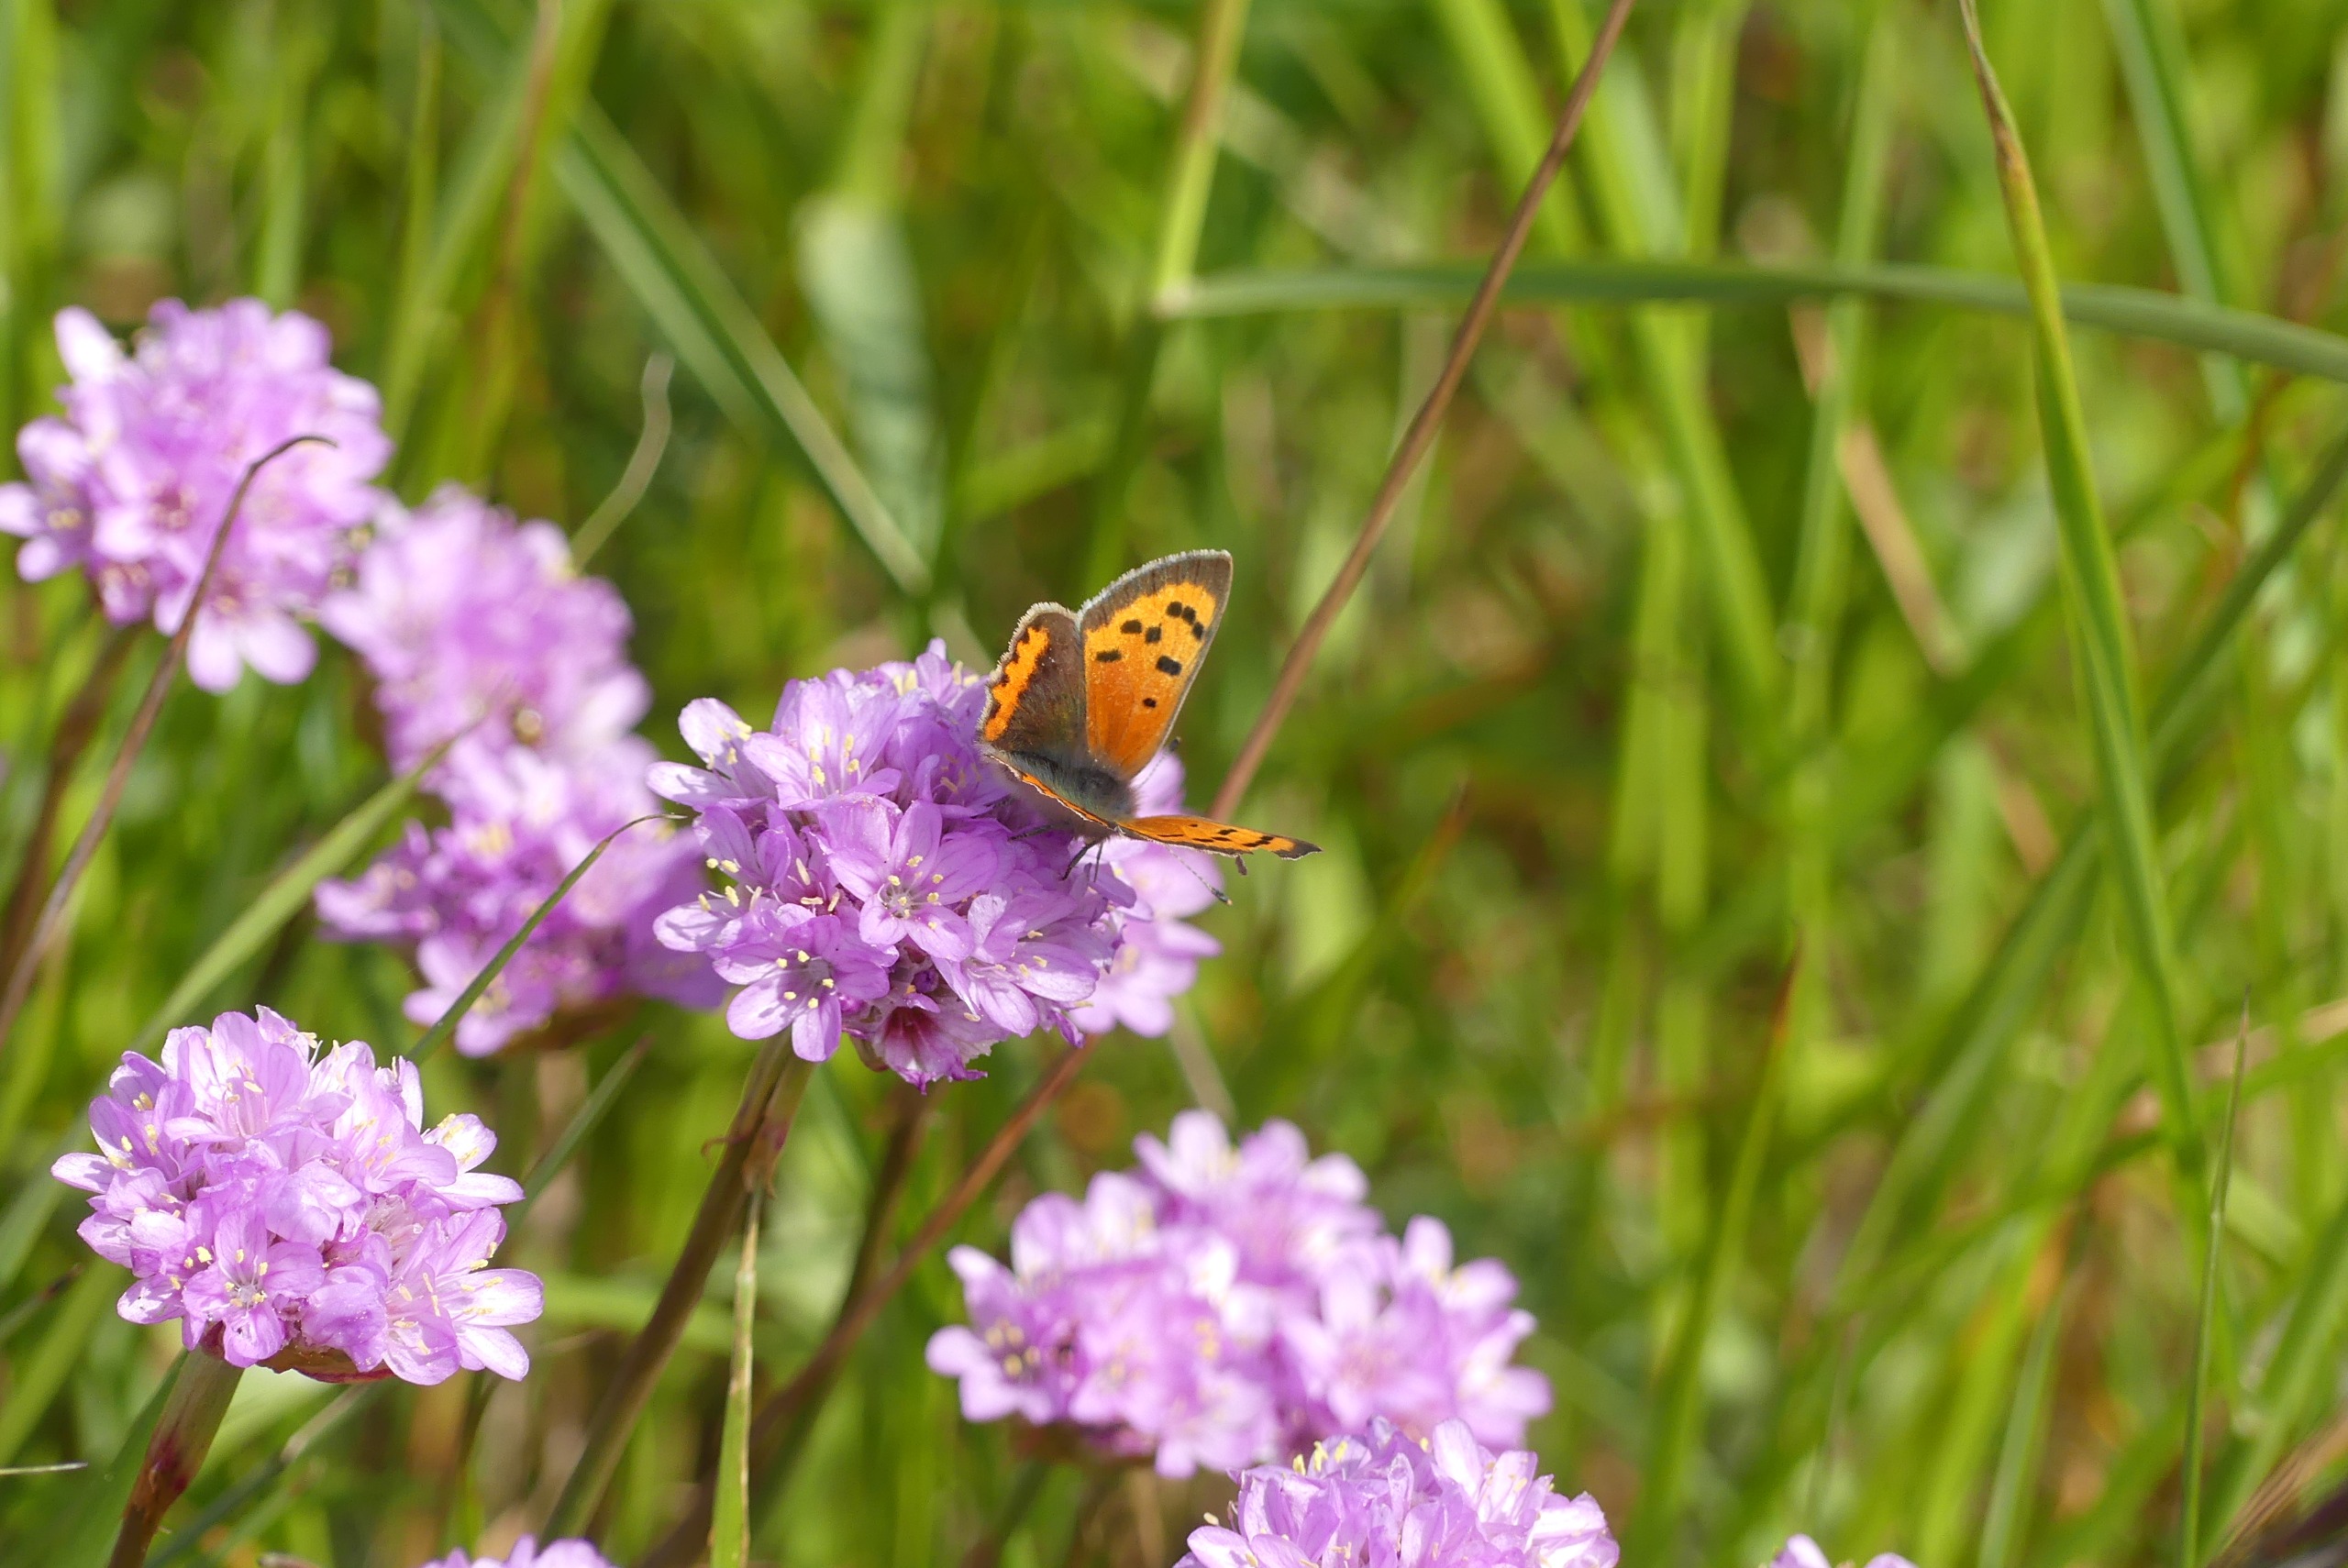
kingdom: Animalia
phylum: Arthropoda
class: Insecta
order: Lepidoptera
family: Lycaenidae
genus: Lycaena
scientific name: Lycaena phlaeas
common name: Lille ildfugl
